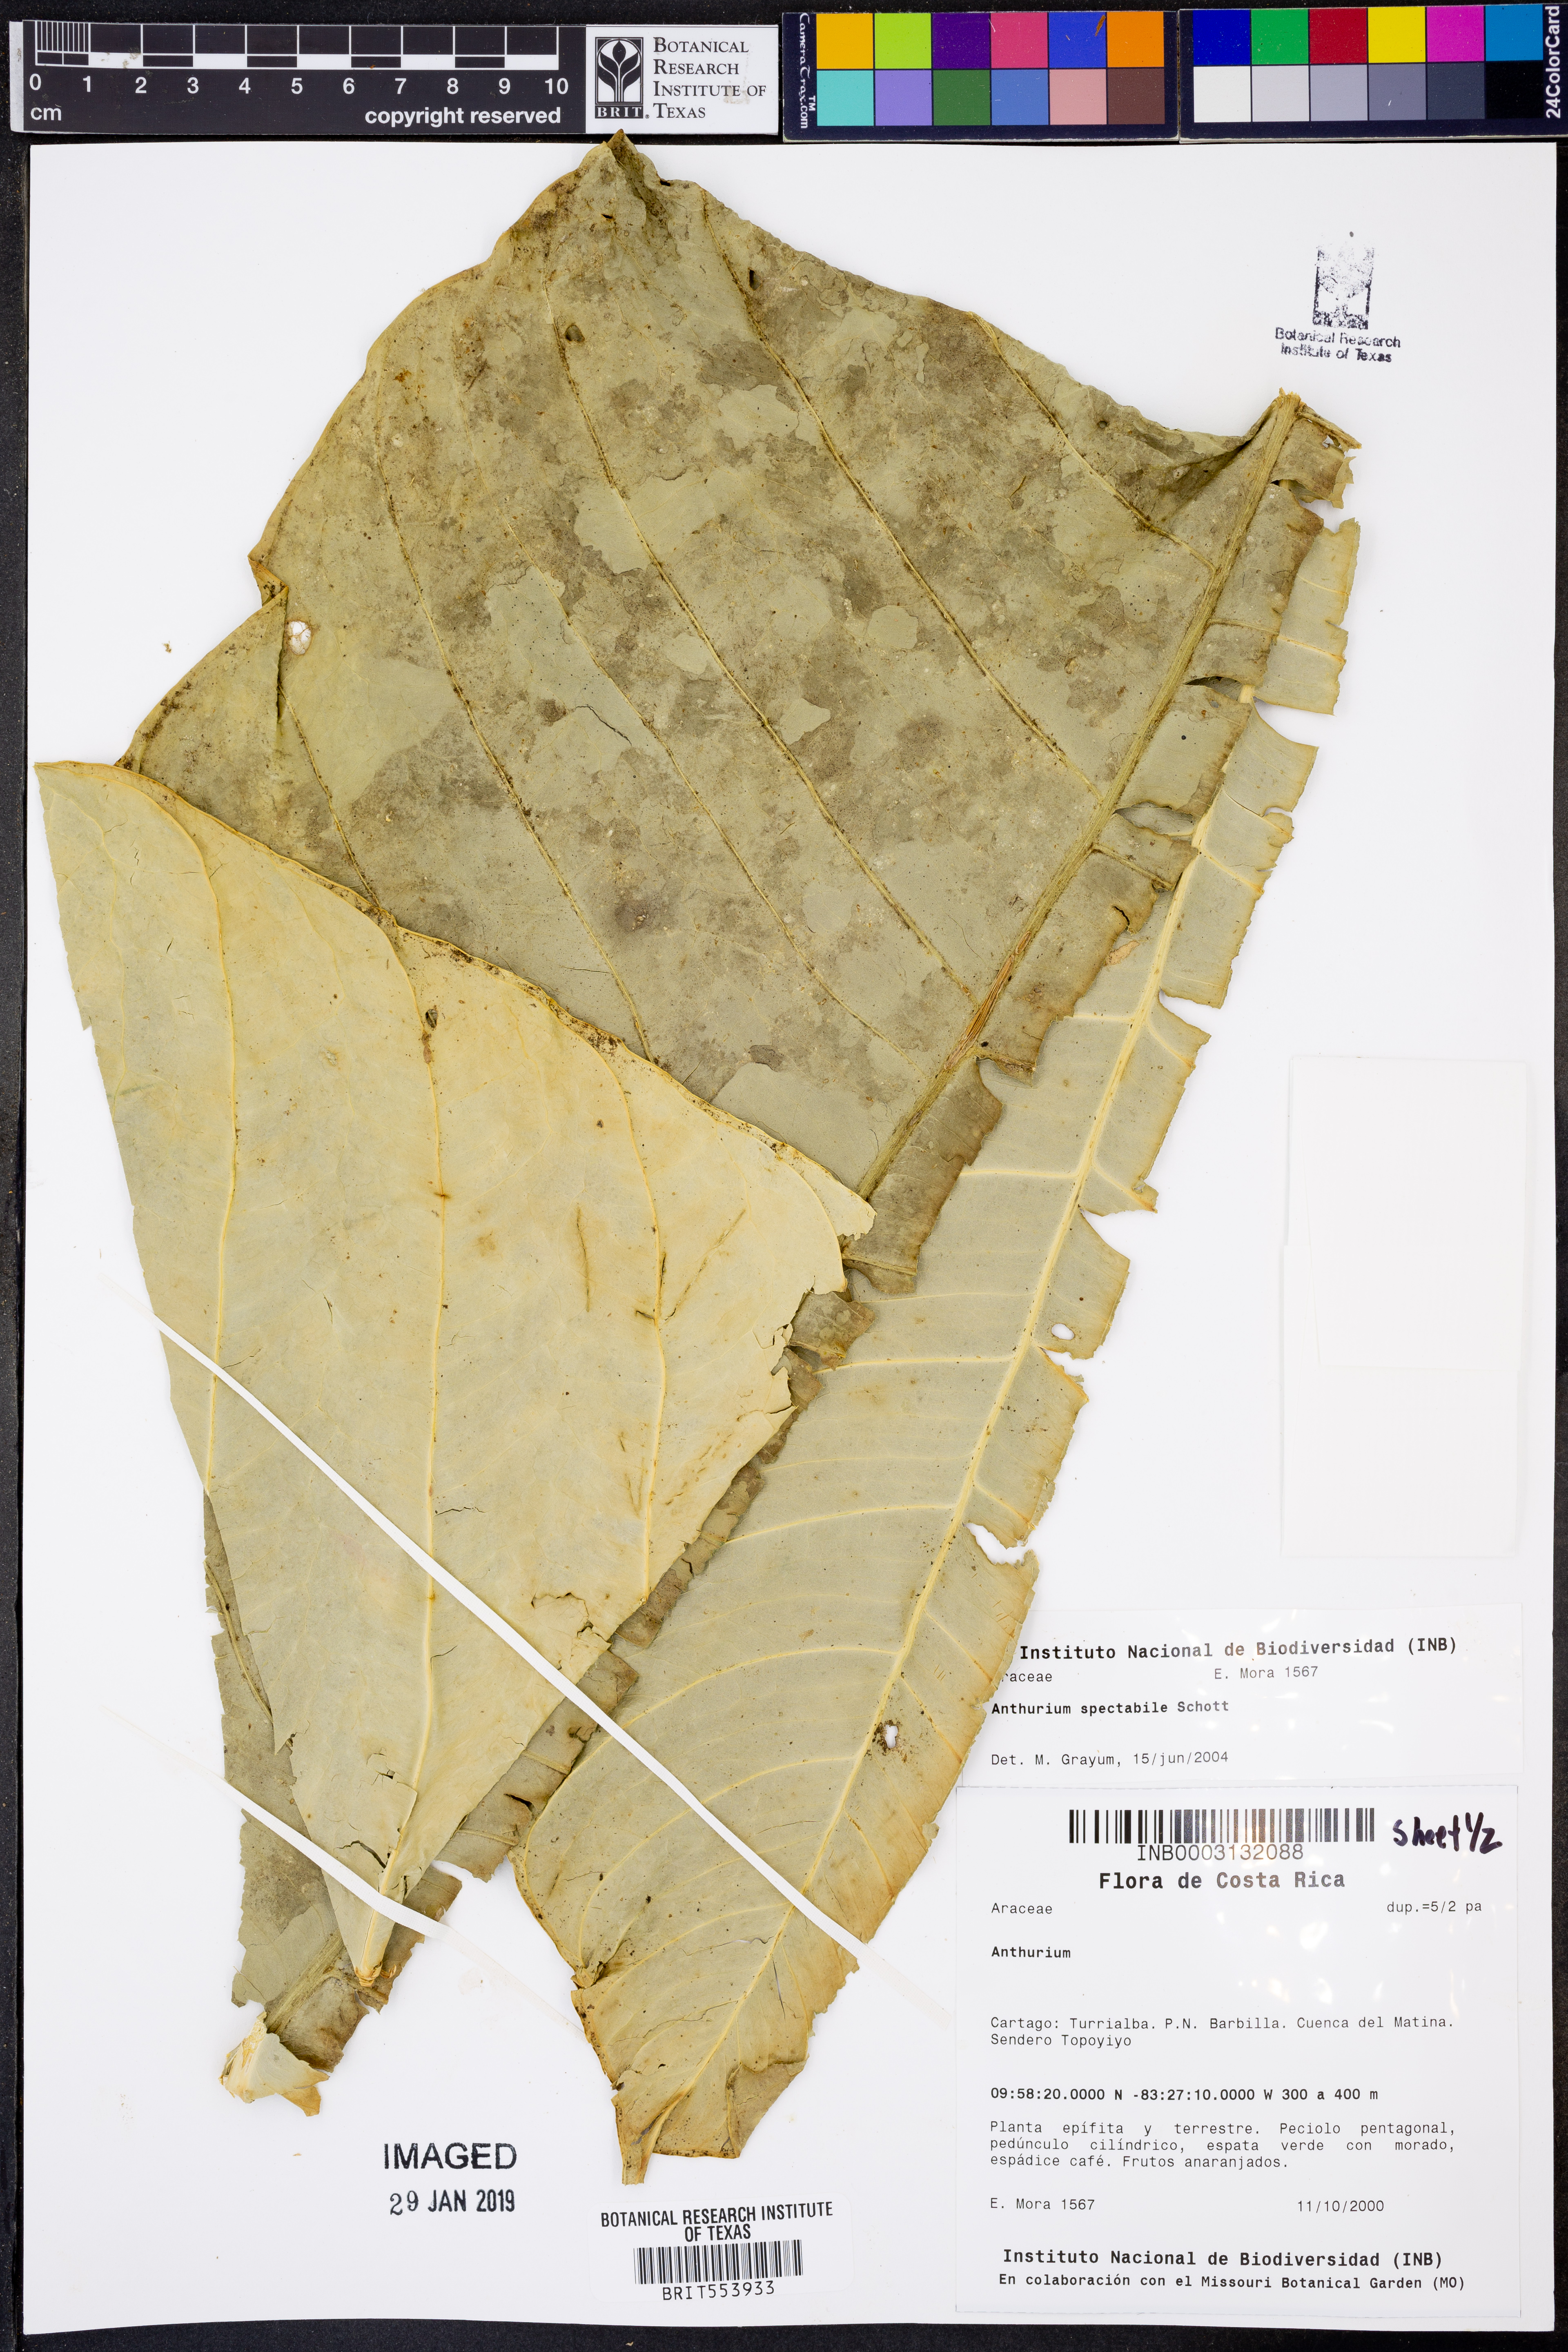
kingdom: Plantae
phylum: Tracheophyta
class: Liliopsida
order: Alismatales
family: Araceae
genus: Anthurium
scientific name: Anthurium spectabile
